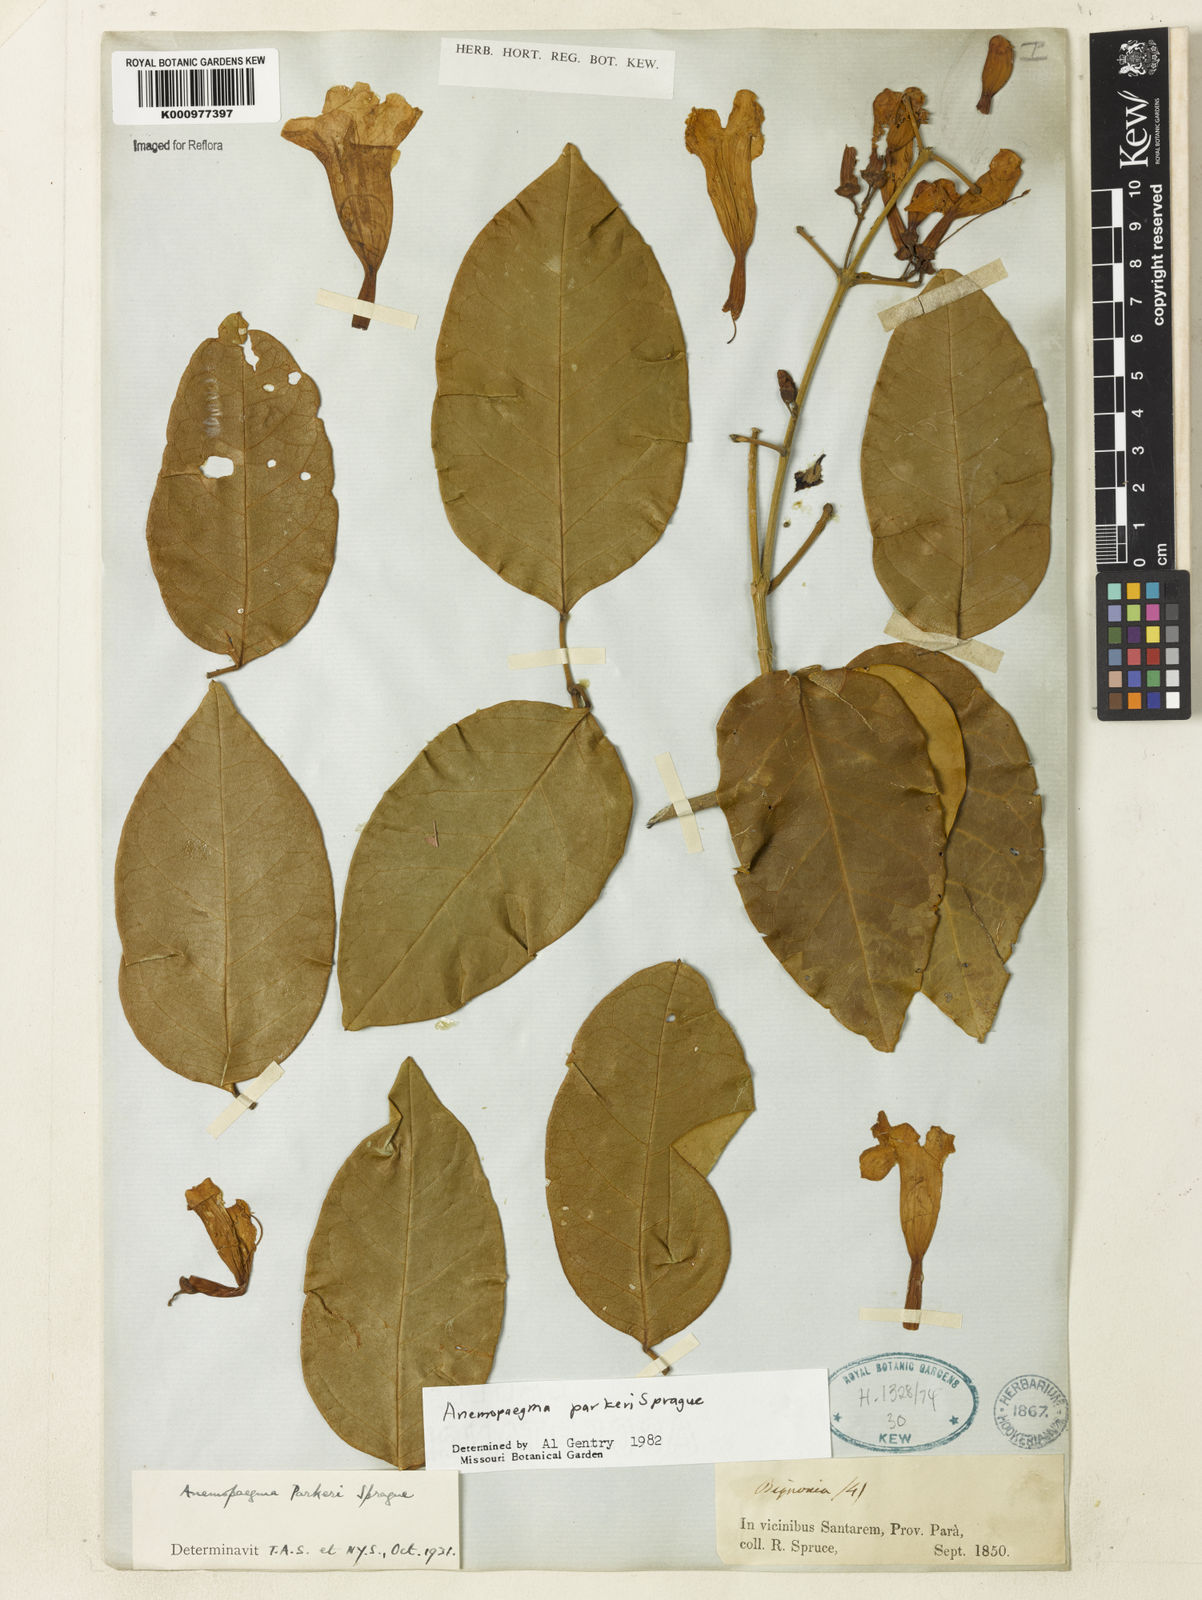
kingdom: Plantae
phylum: Tracheophyta
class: Magnoliopsida
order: Lamiales
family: Bignoniaceae
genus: Anemopaegma
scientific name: Anemopaegma parkeri
